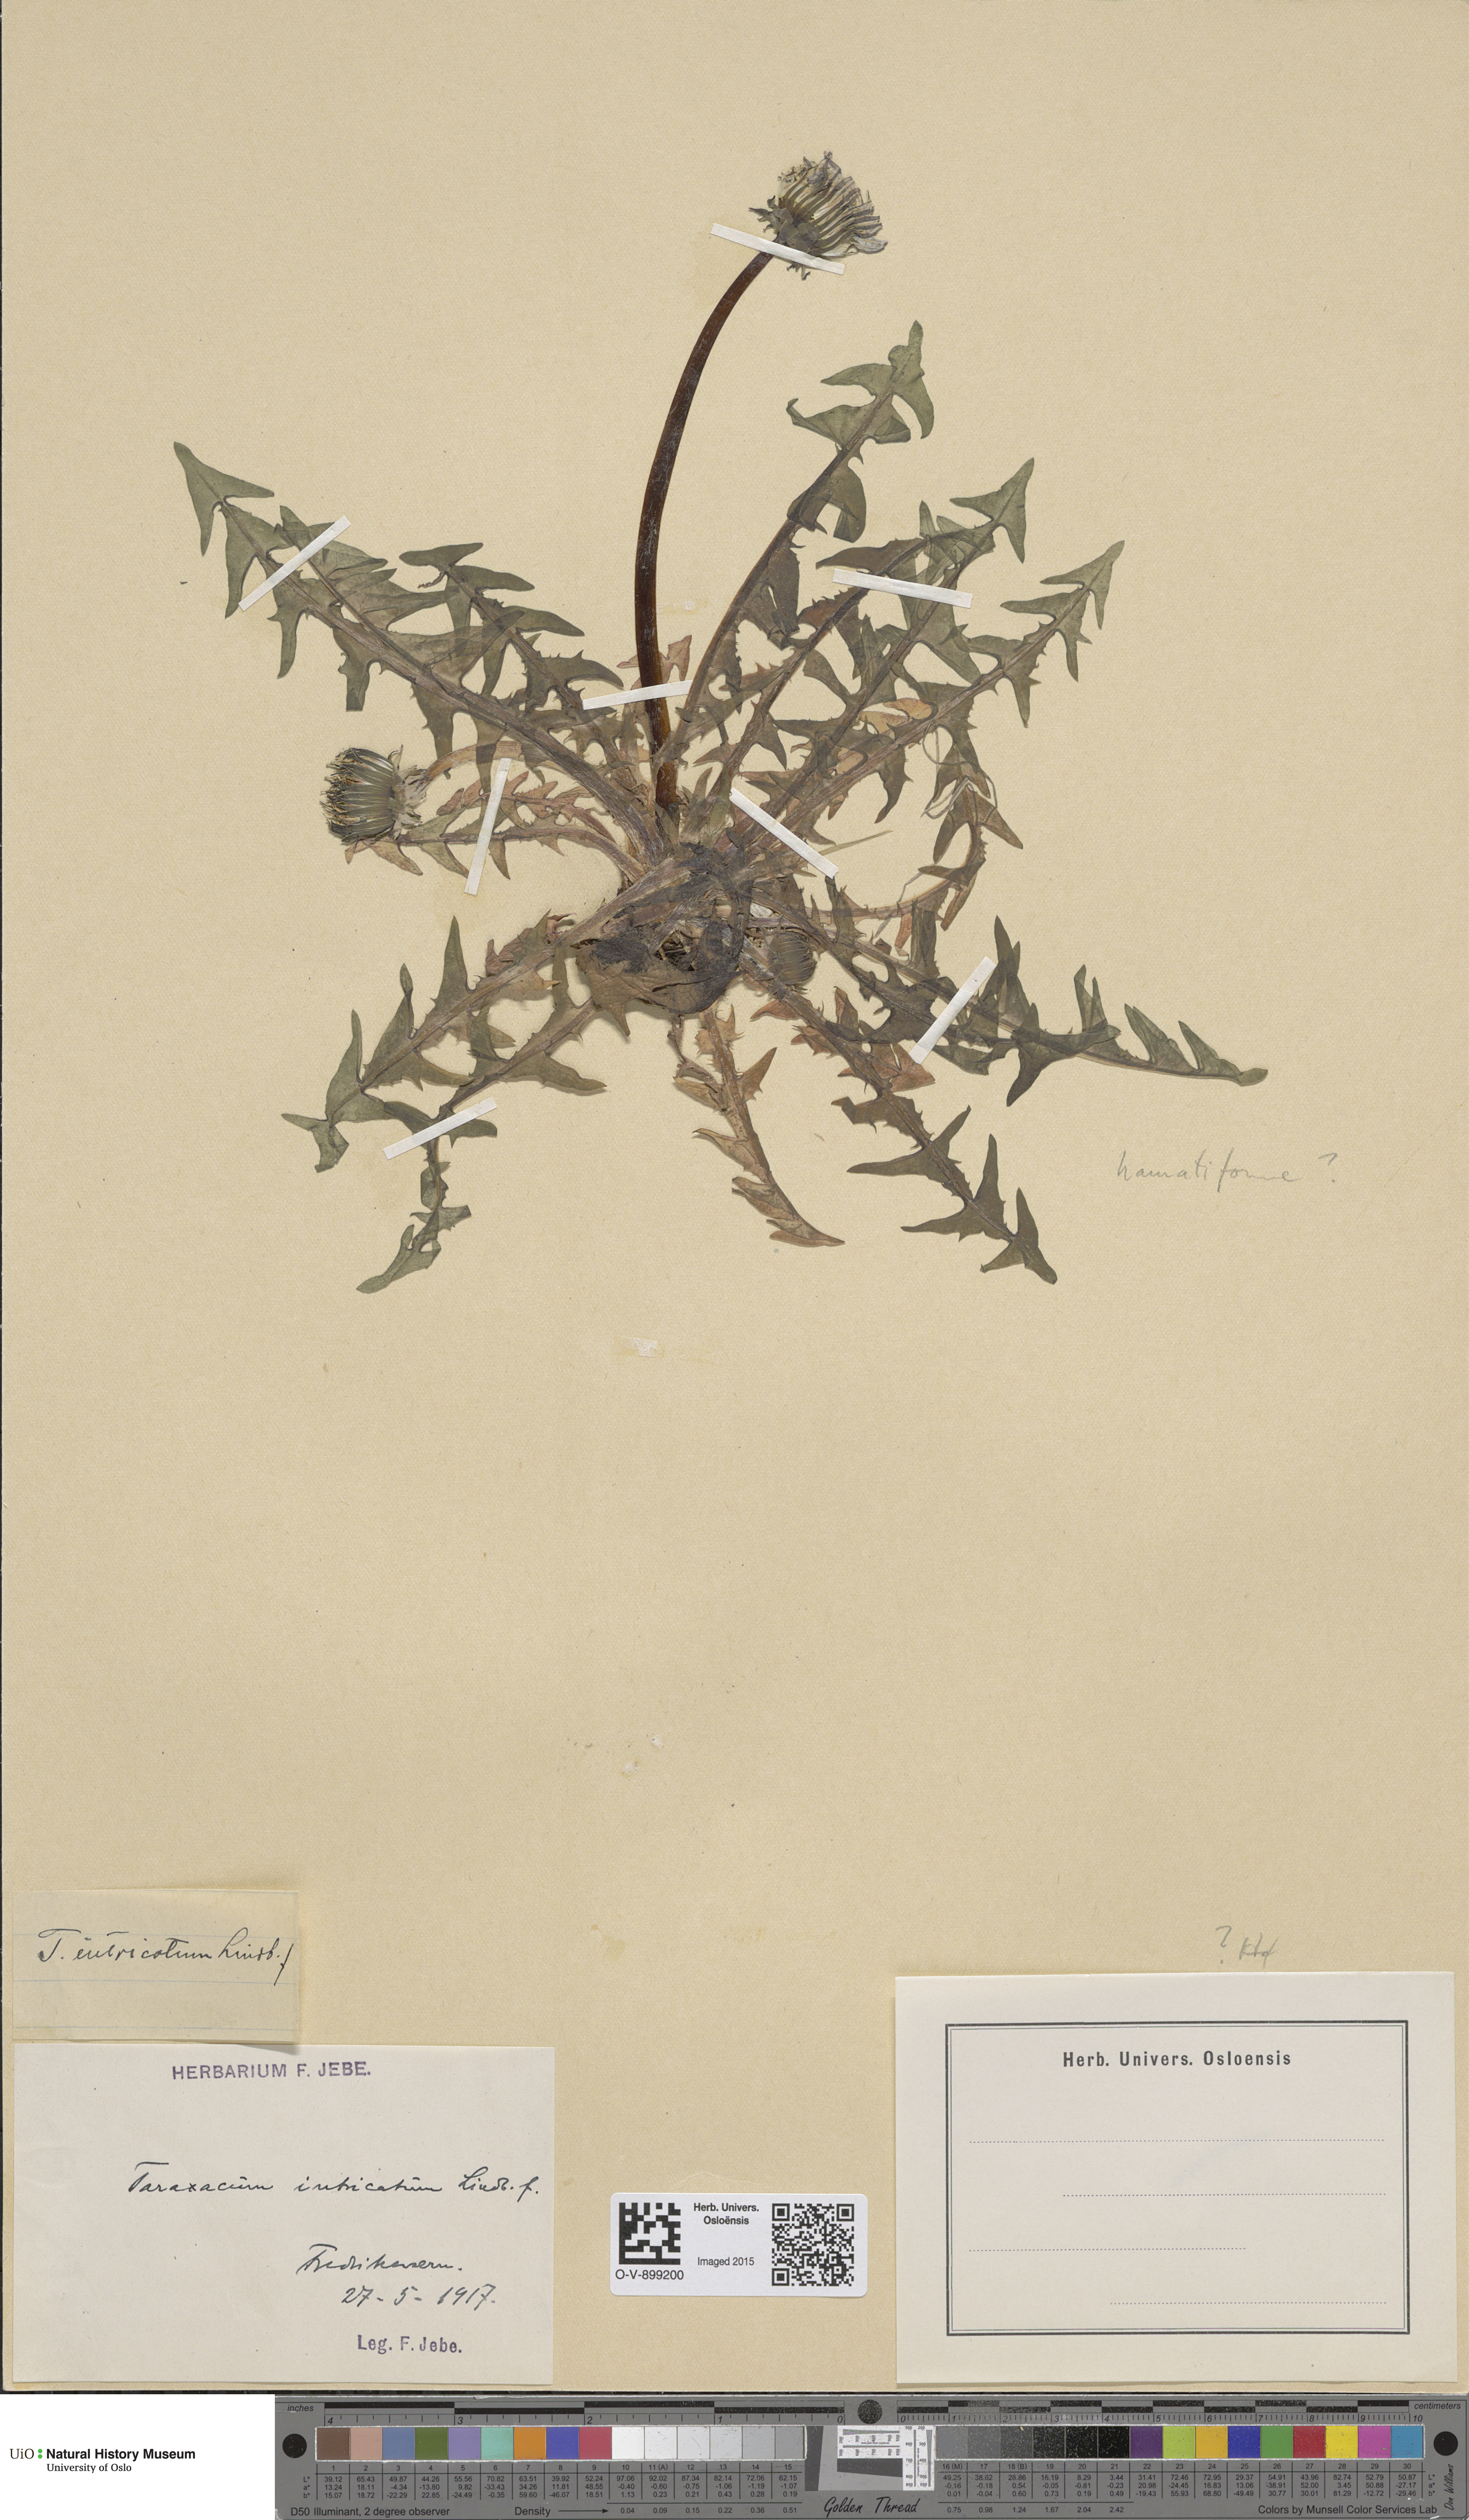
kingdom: Plantae
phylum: Tracheophyta
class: Magnoliopsida
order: Asterales
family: Asteraceae
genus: Taraxacum
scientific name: Taraxacum recurvum
